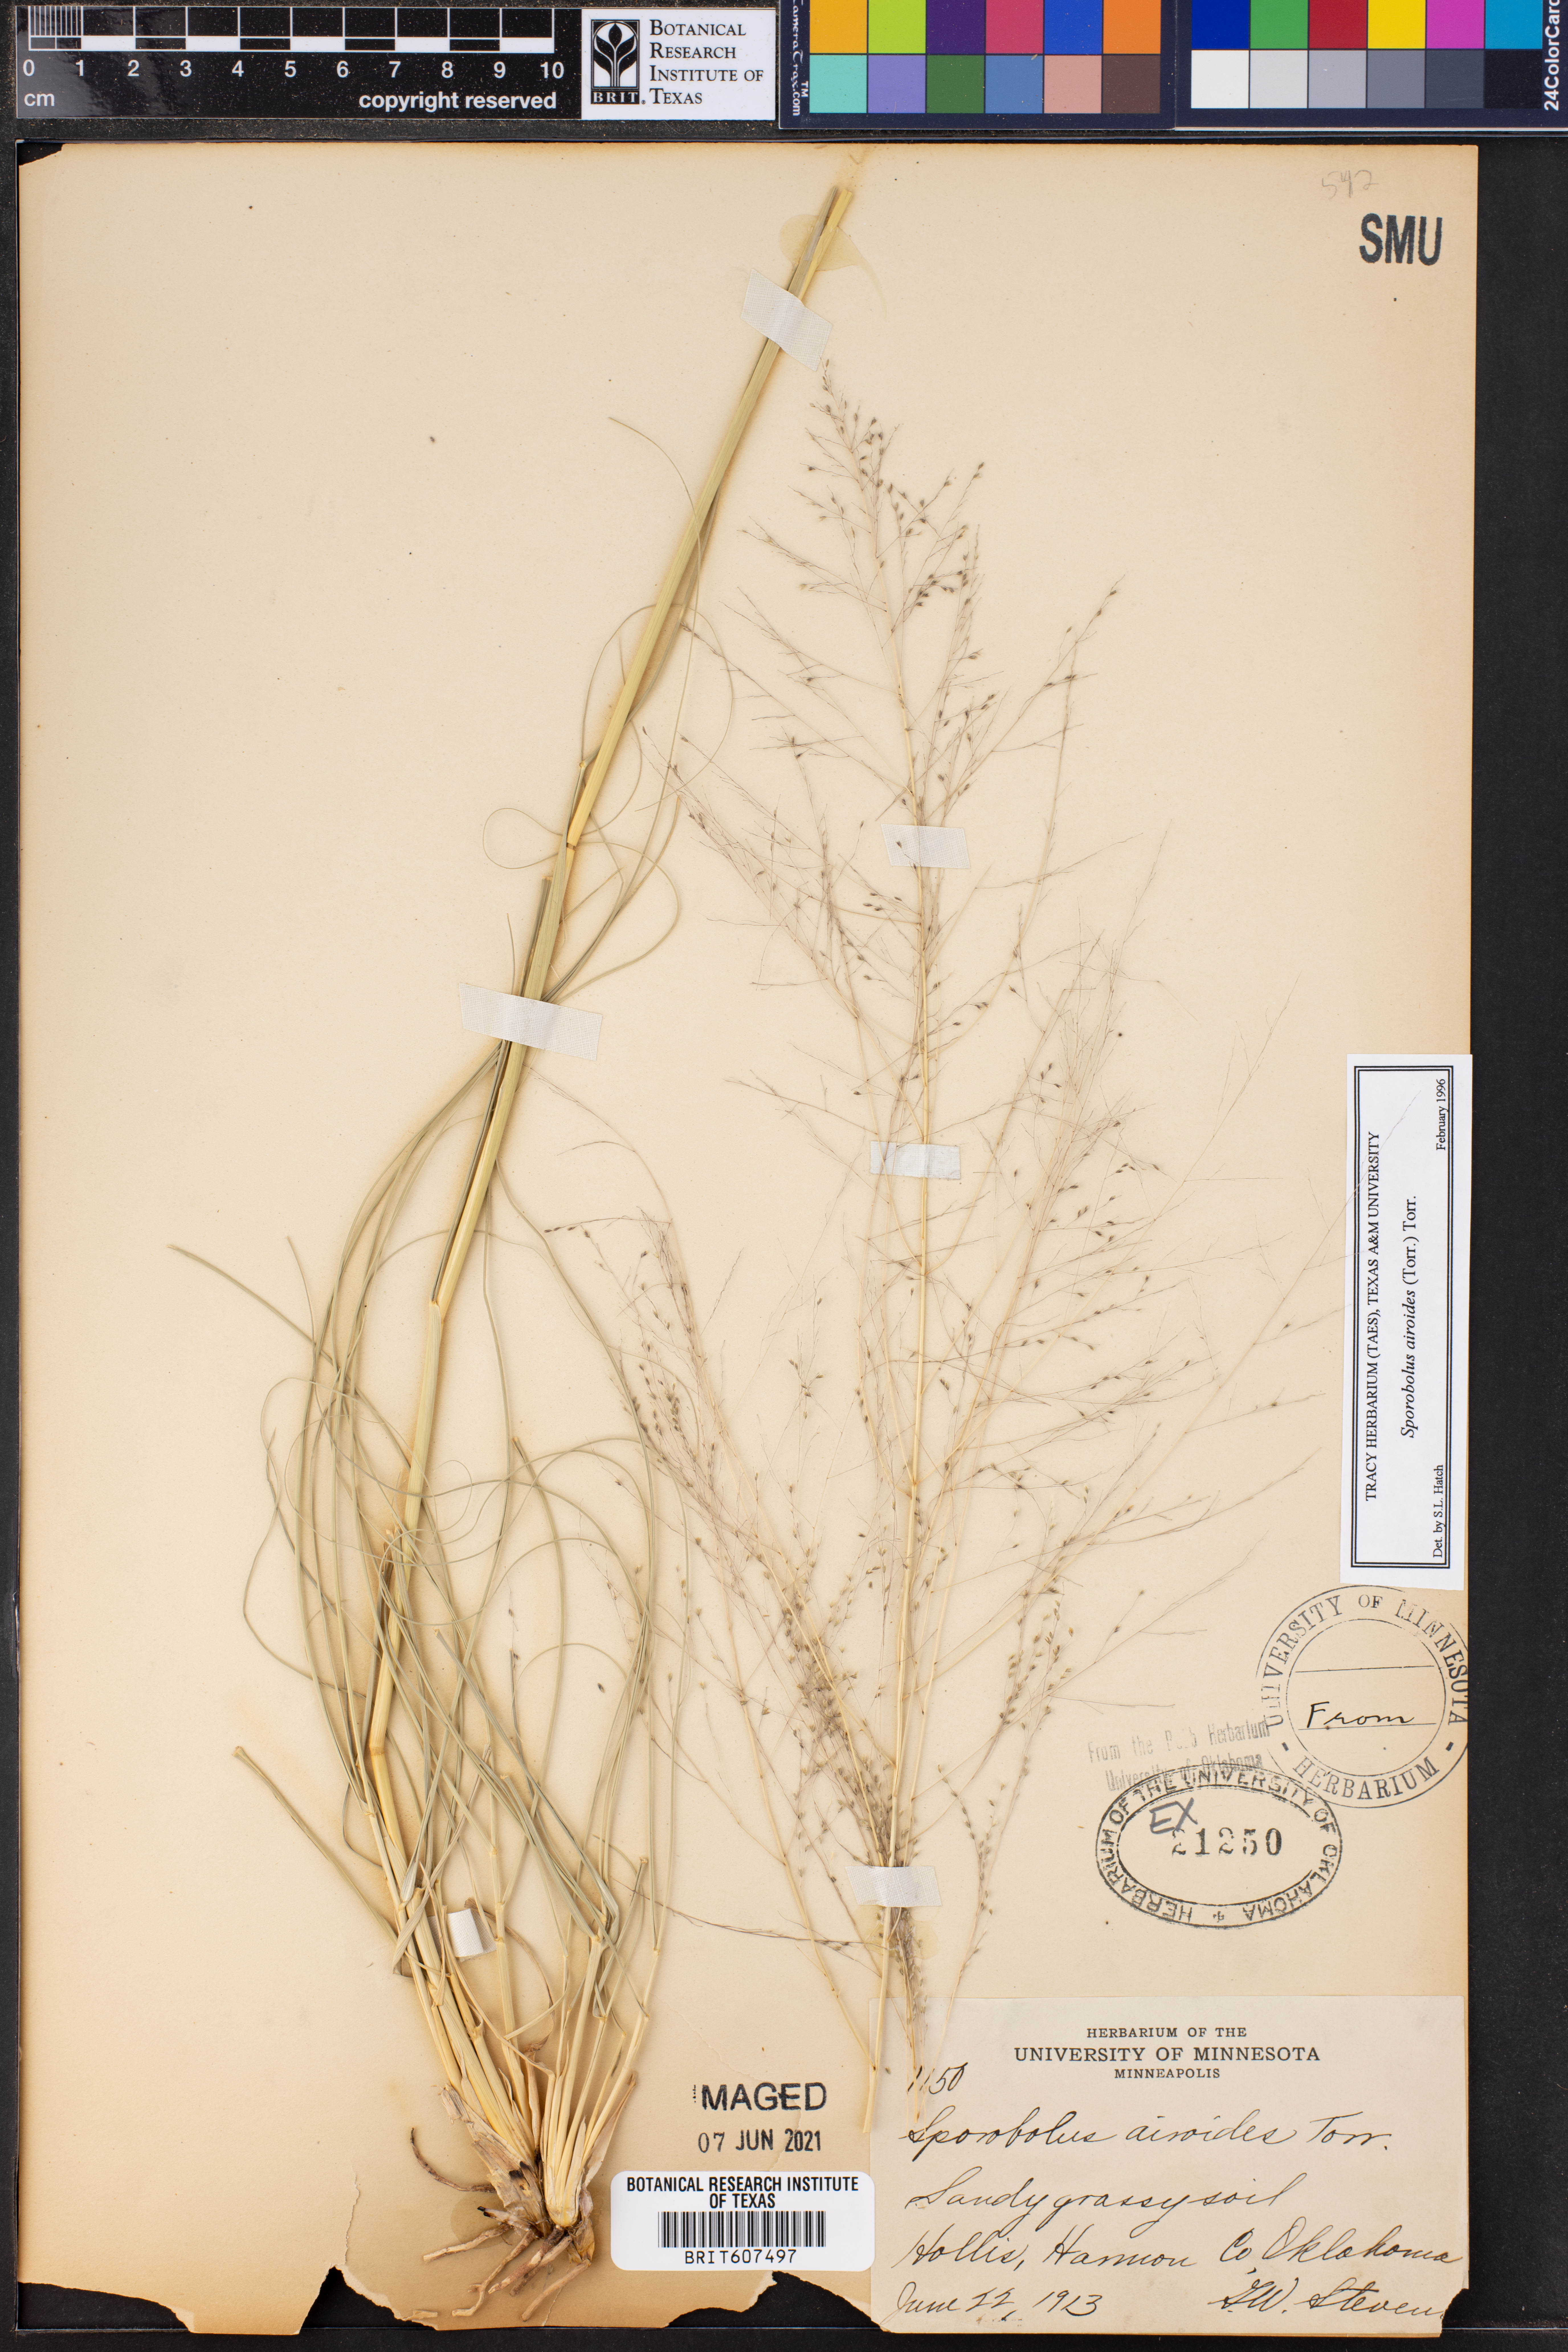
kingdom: Plantae
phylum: Tracheophyta
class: Liliopsida
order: Poales
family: Poaceae
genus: Sporobolus
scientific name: Sporobolus airoides
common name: Alkali sacaton
